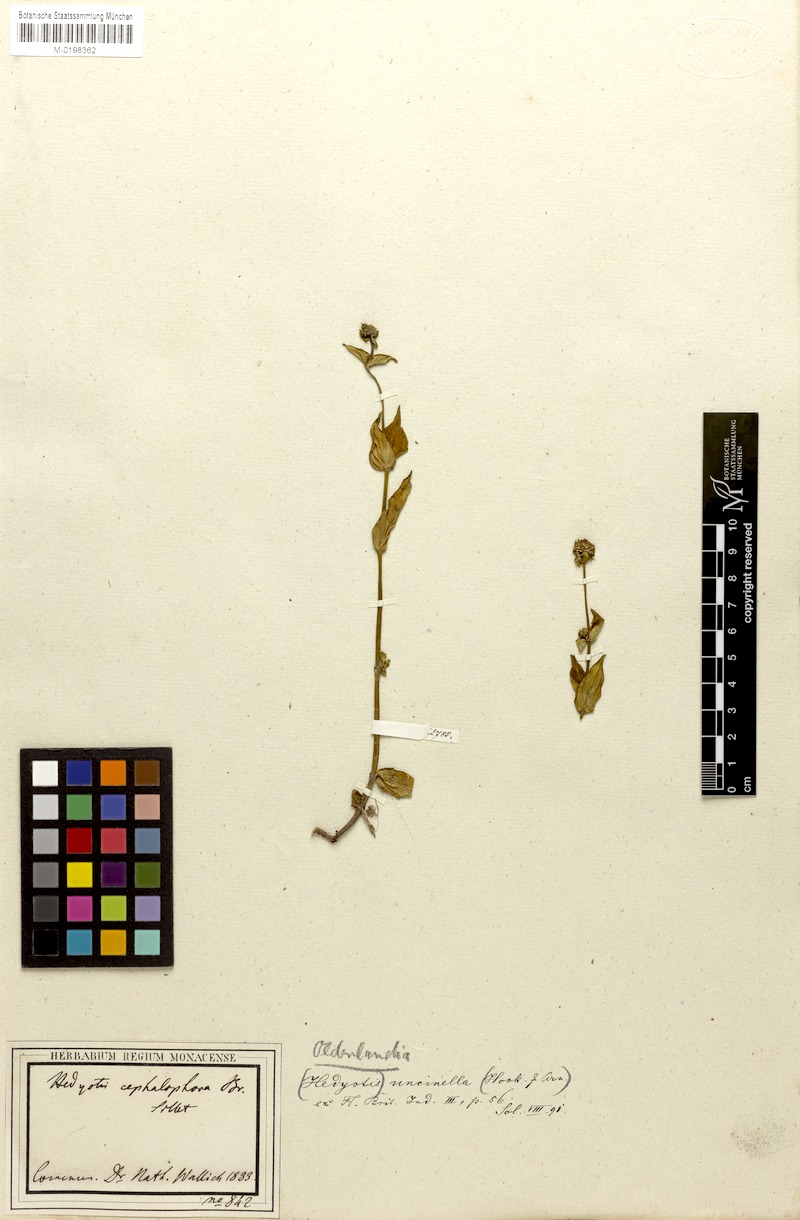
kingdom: Plantae
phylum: Tracheophyta
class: Magnoliopsida
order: Gentianales
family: Rubiaceae
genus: Hedyotis
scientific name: Hedyotis uncinella
